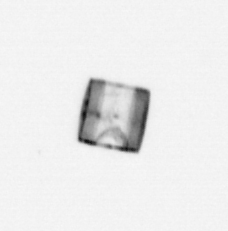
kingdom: Chromista
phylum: Ochrophyta
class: Bacillariophyceae
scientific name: Bacillariophyceae
